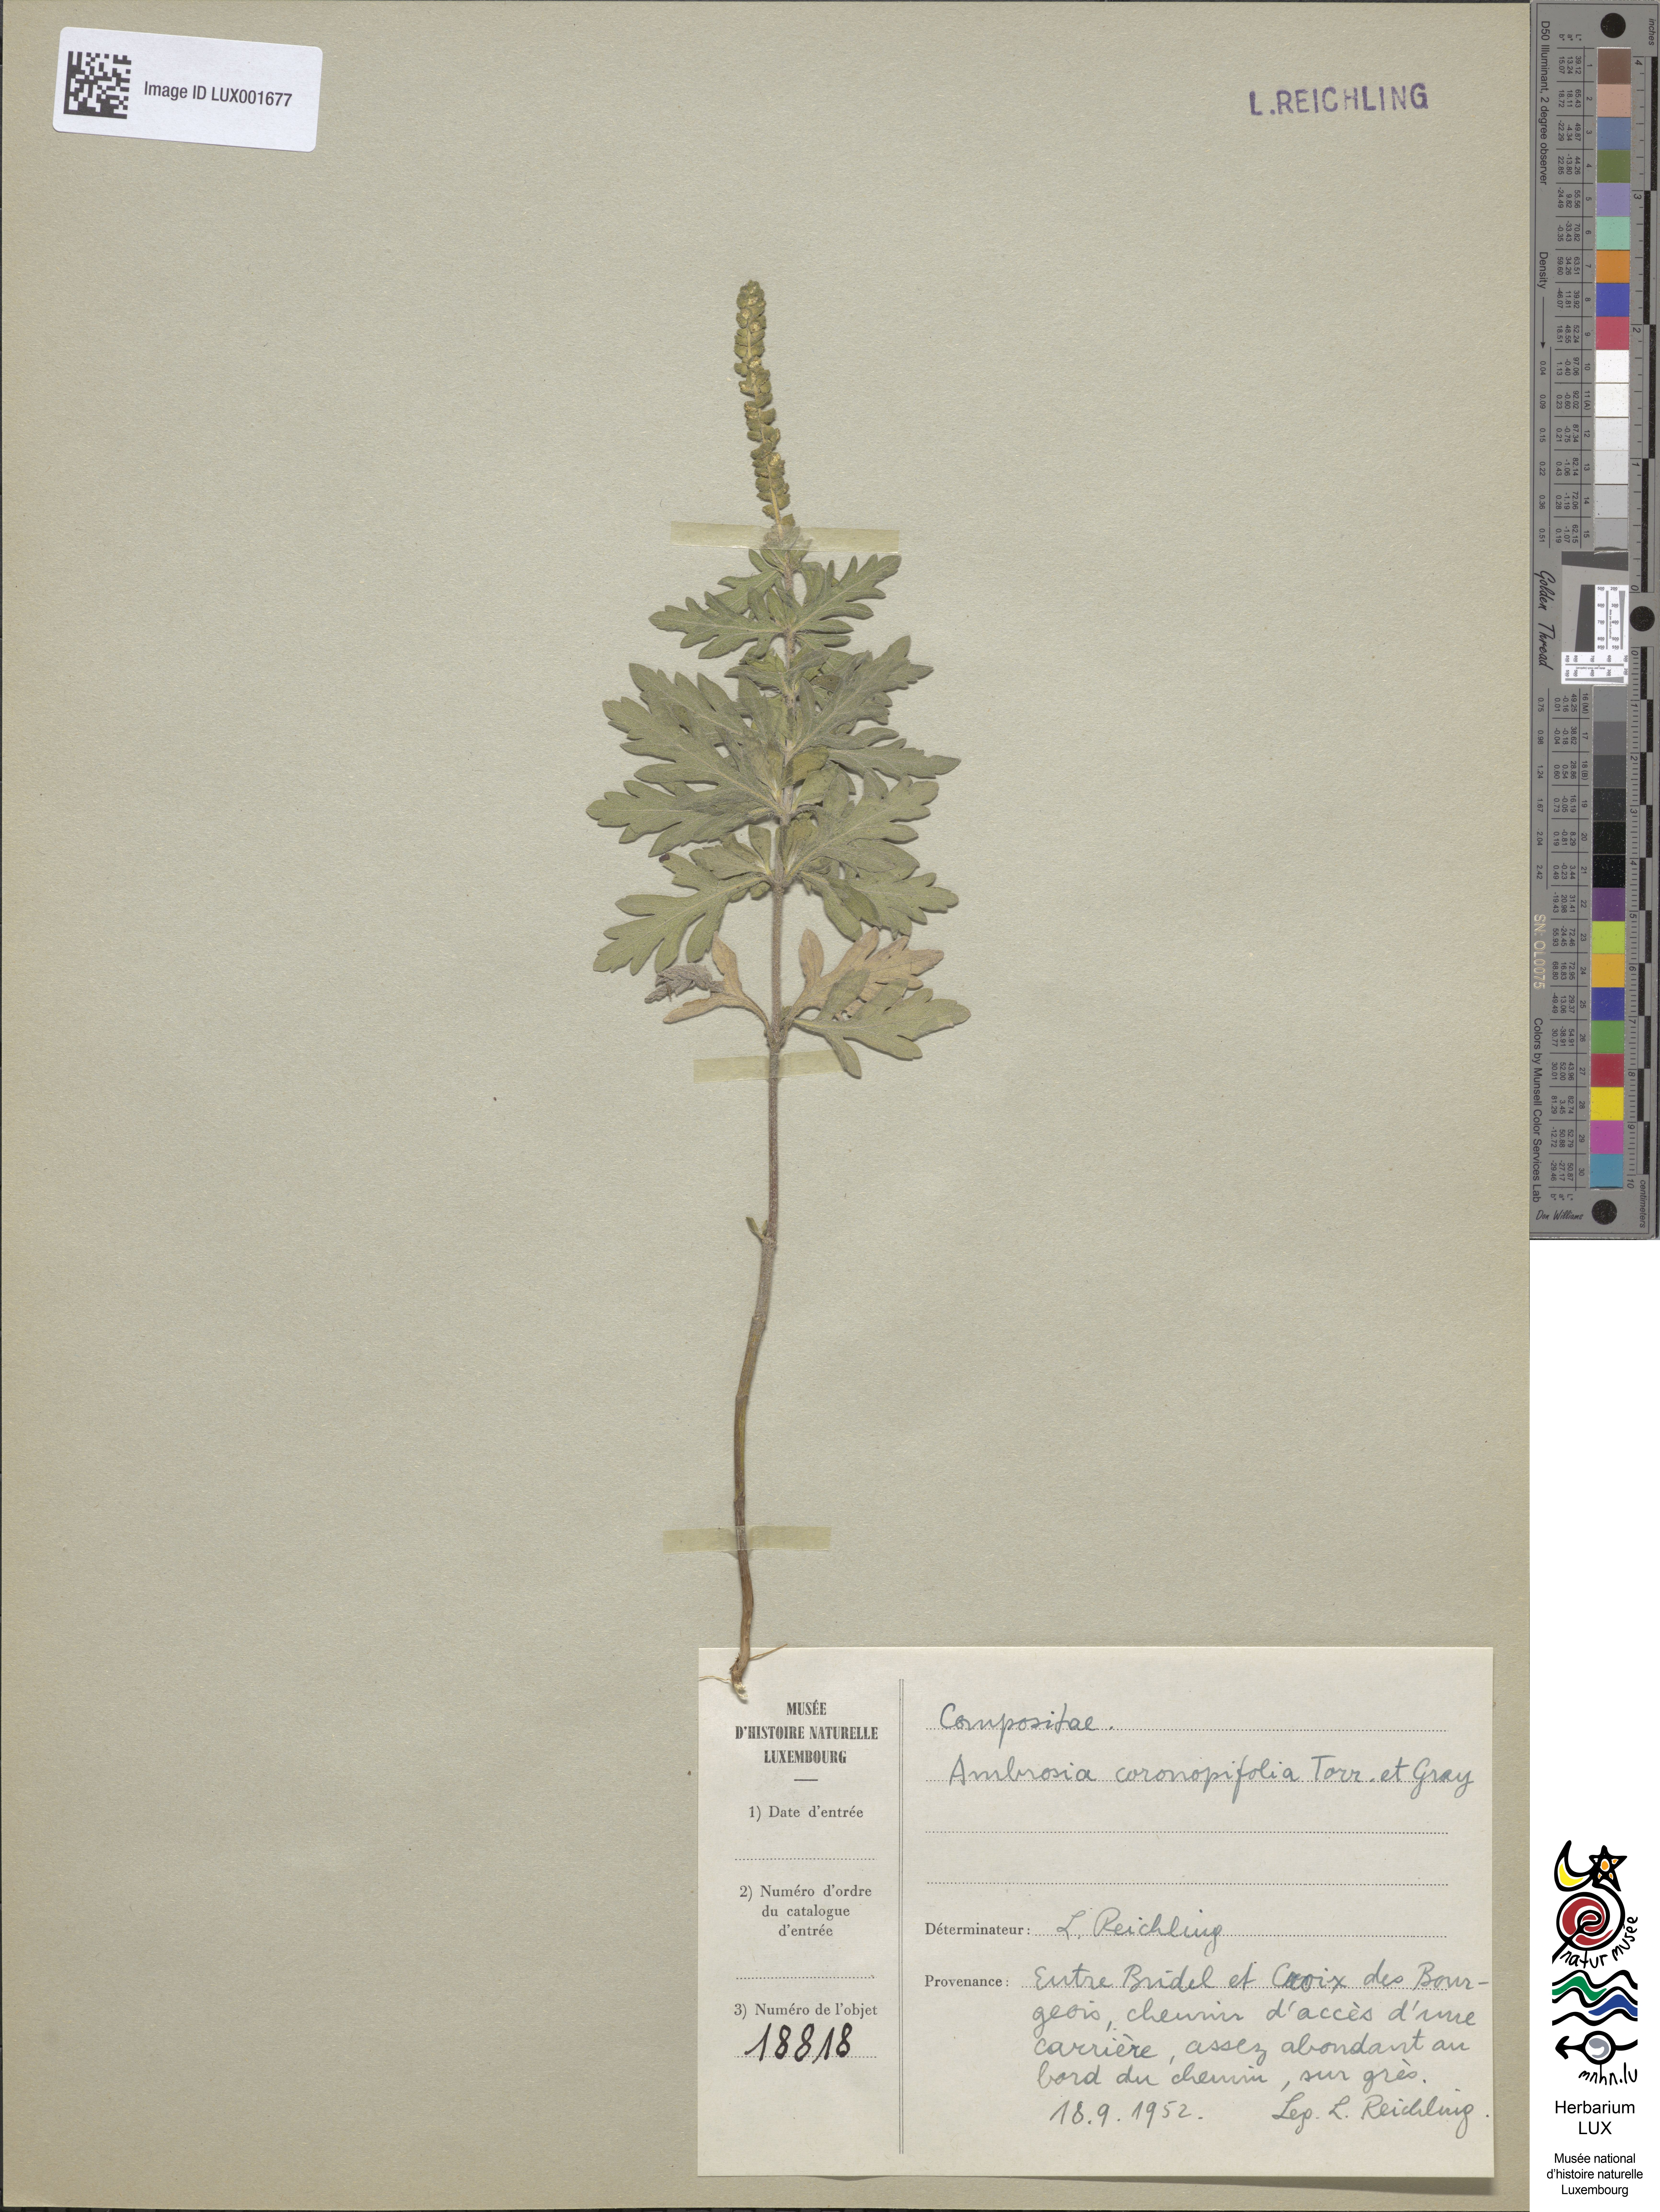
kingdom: Plantae
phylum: Tracheophyta
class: Magnoliopsida
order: Asterales
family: Asteraceae
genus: Ambrosia
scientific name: Ambrosia psilostachya
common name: Perennial ragweed
